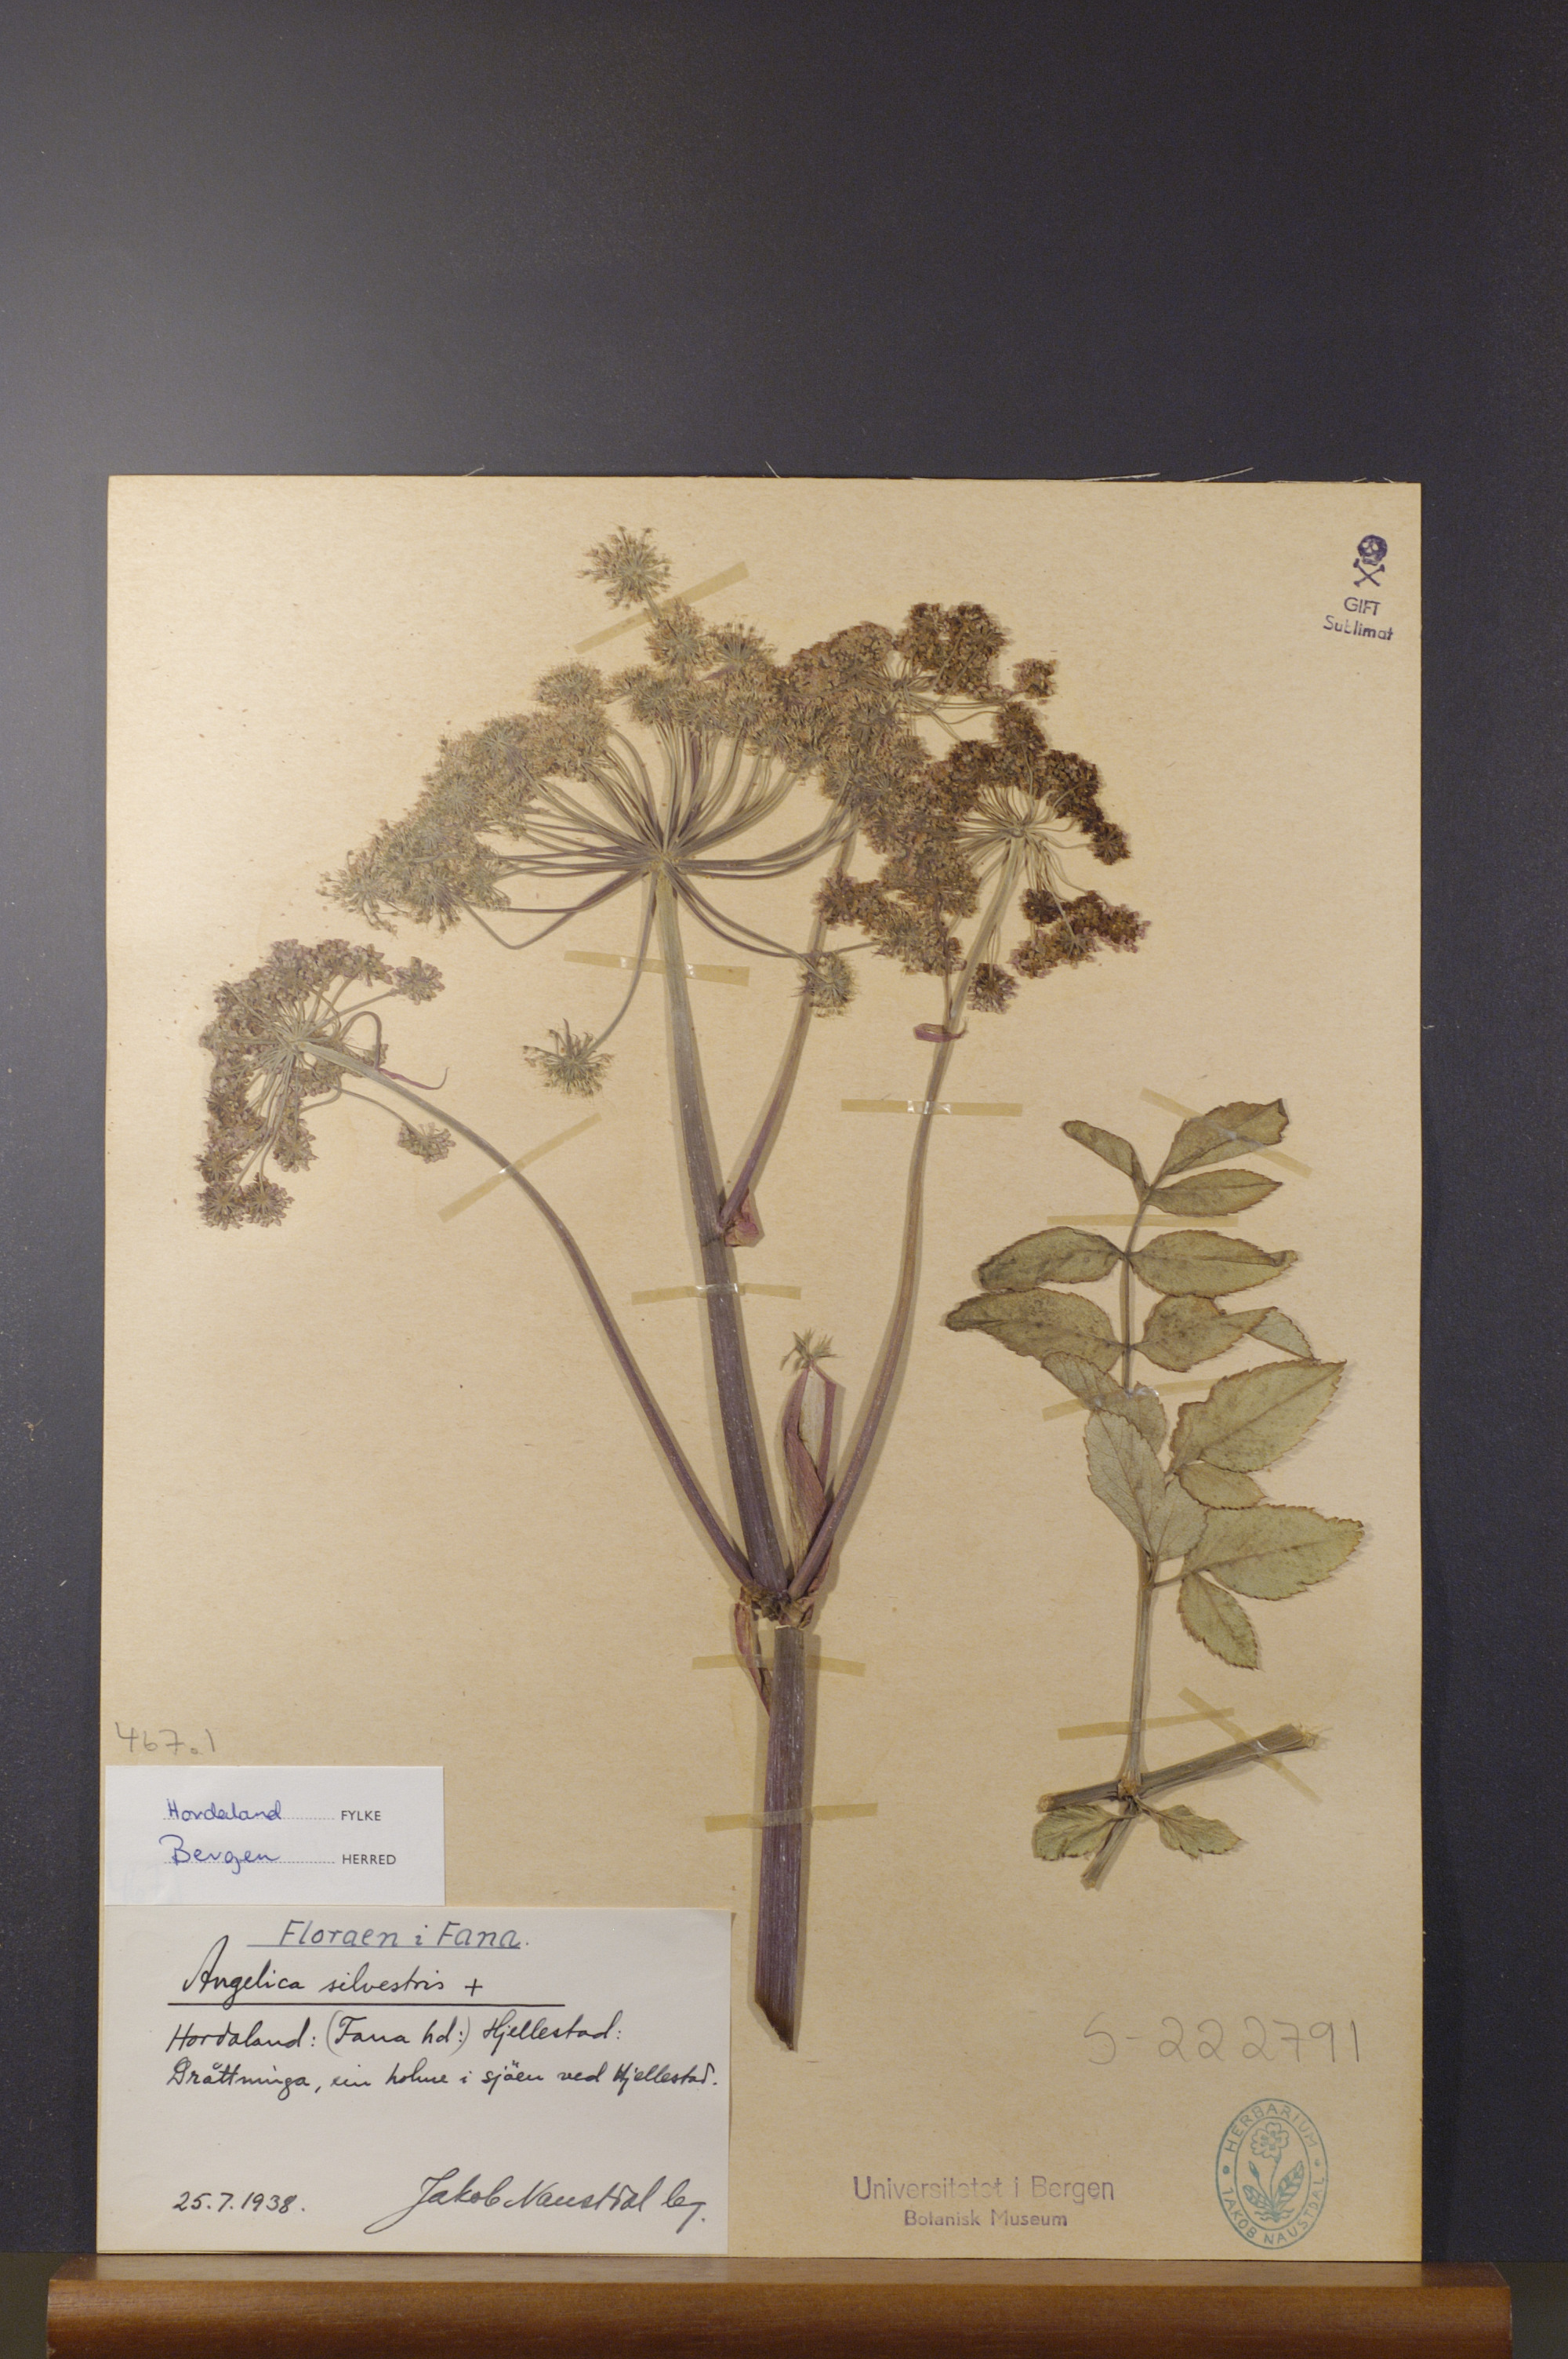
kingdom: Plantae
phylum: Tracheophyta
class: Magnoliopsida
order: Apiales
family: Apiaceae
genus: Angelica
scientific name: Angelica sylvestris
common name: Wild angelica
